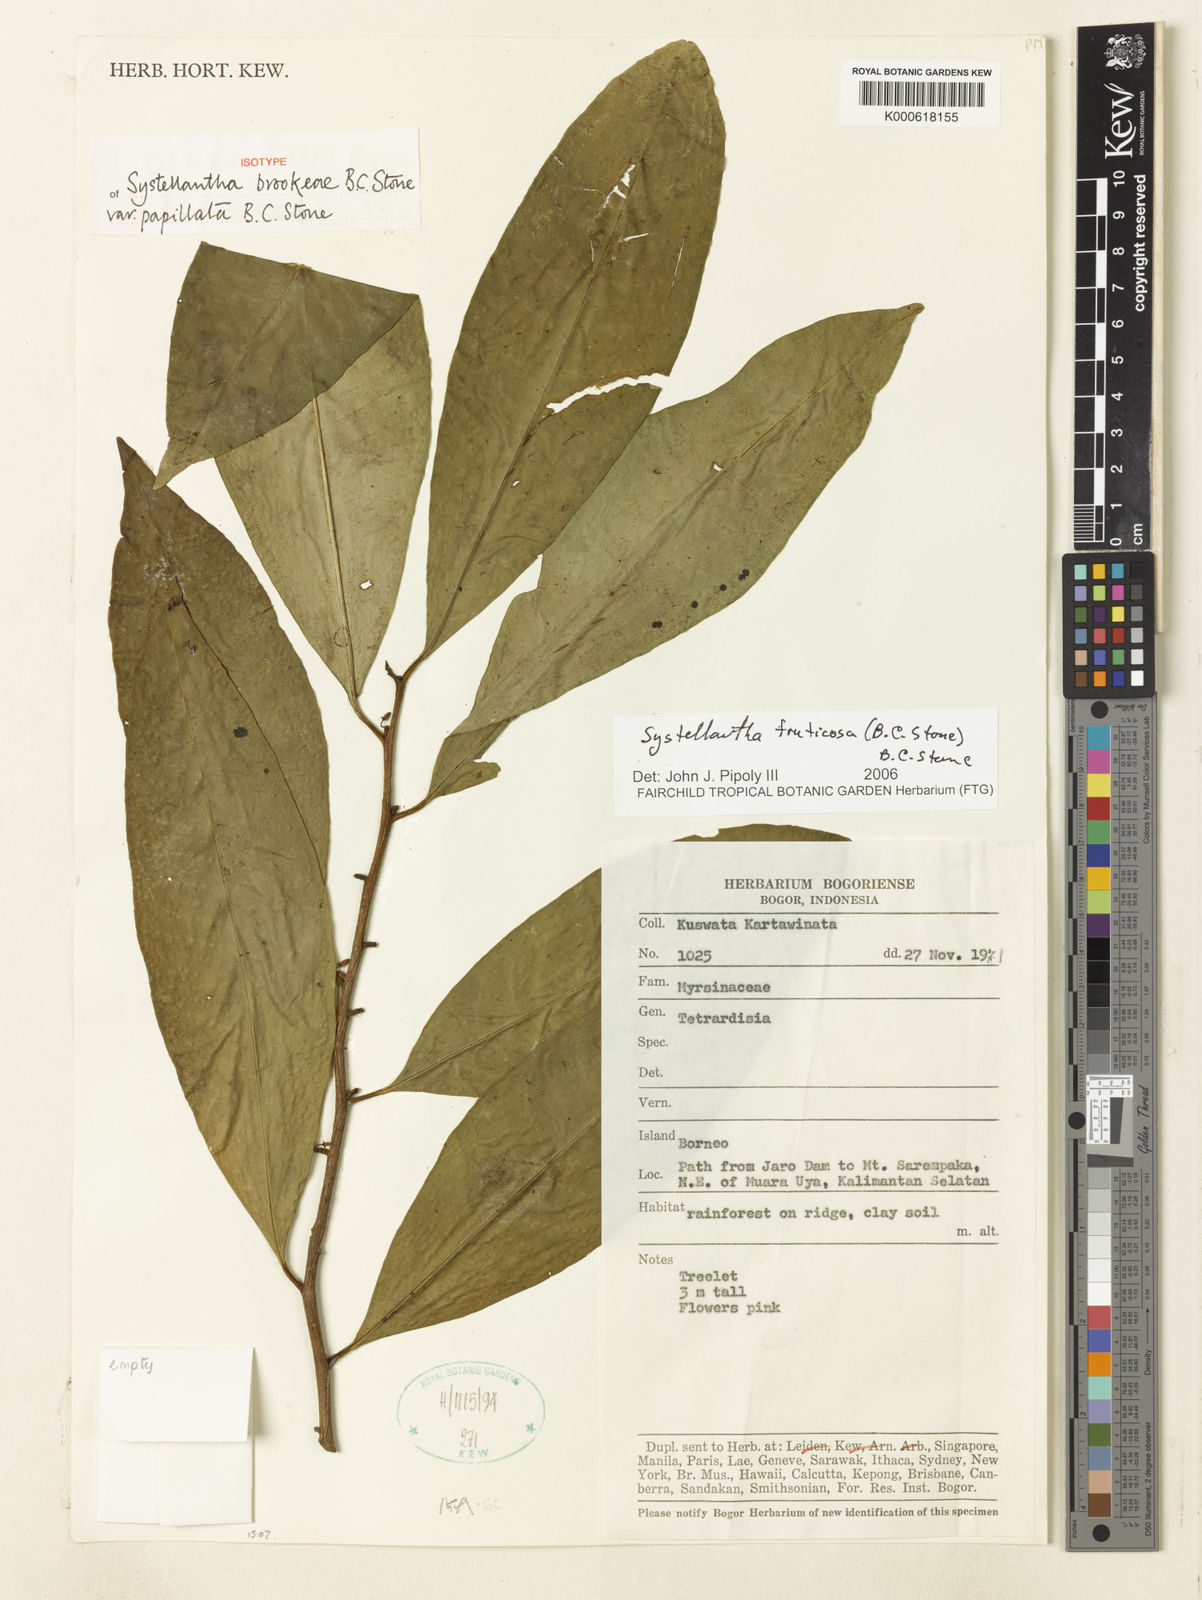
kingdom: Plantae
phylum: Tracheophyta
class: Magnoliopsida
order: Ericales
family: Primulaceae
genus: Systellantha
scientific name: Systellantha brookeae
